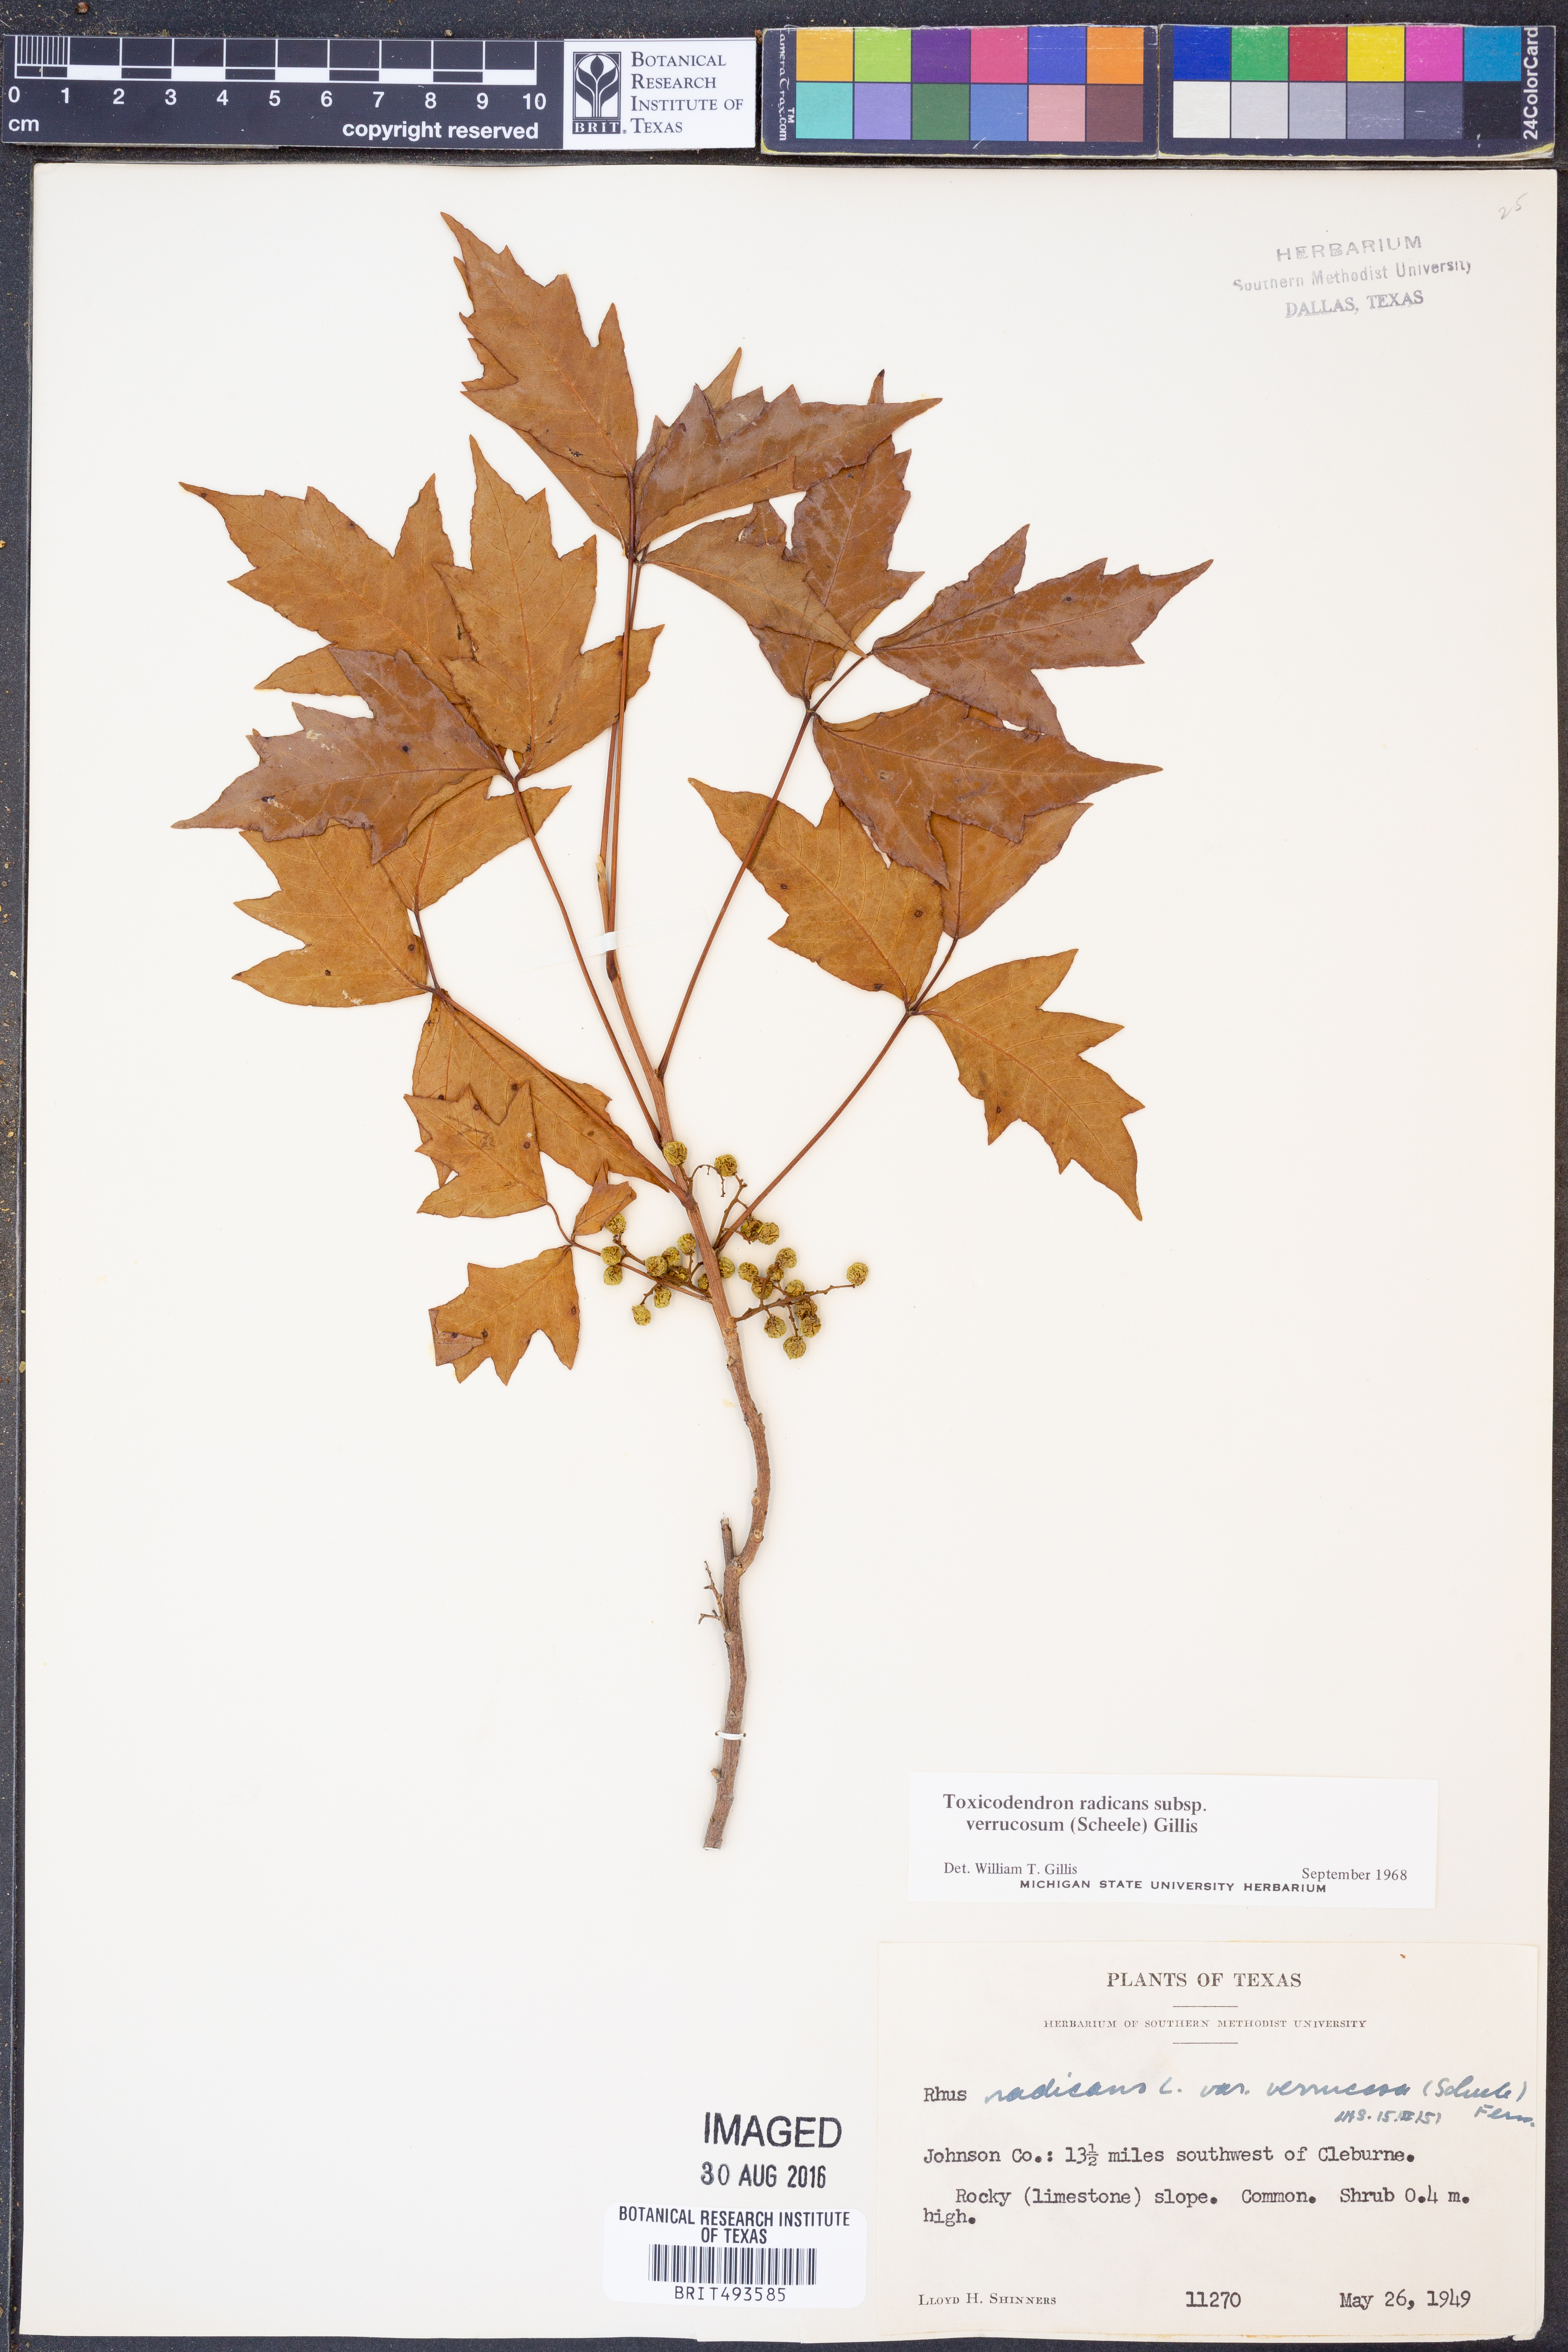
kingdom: Plantae
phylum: Tracheophyta
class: Magnoliopsida
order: Sapindales
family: Anacardiaceae
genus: Toxicodendron
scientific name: Toxicodendron radicans
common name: Poison ivy
